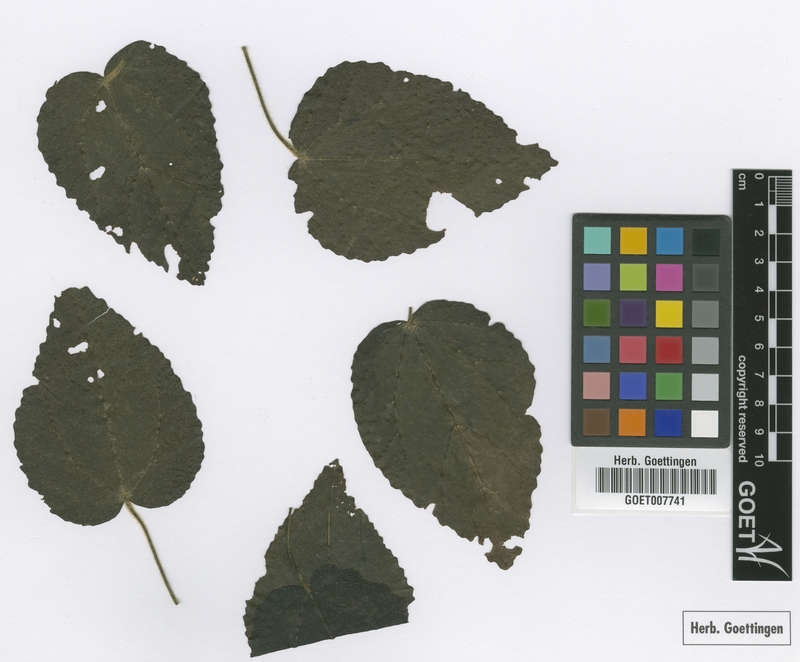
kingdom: Plantae
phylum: Tracheophyta
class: Magnoliopsida
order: Malvales
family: Malvaceae
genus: Malvaviscus
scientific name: Malvaviscus arboreus
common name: Wax mallow
